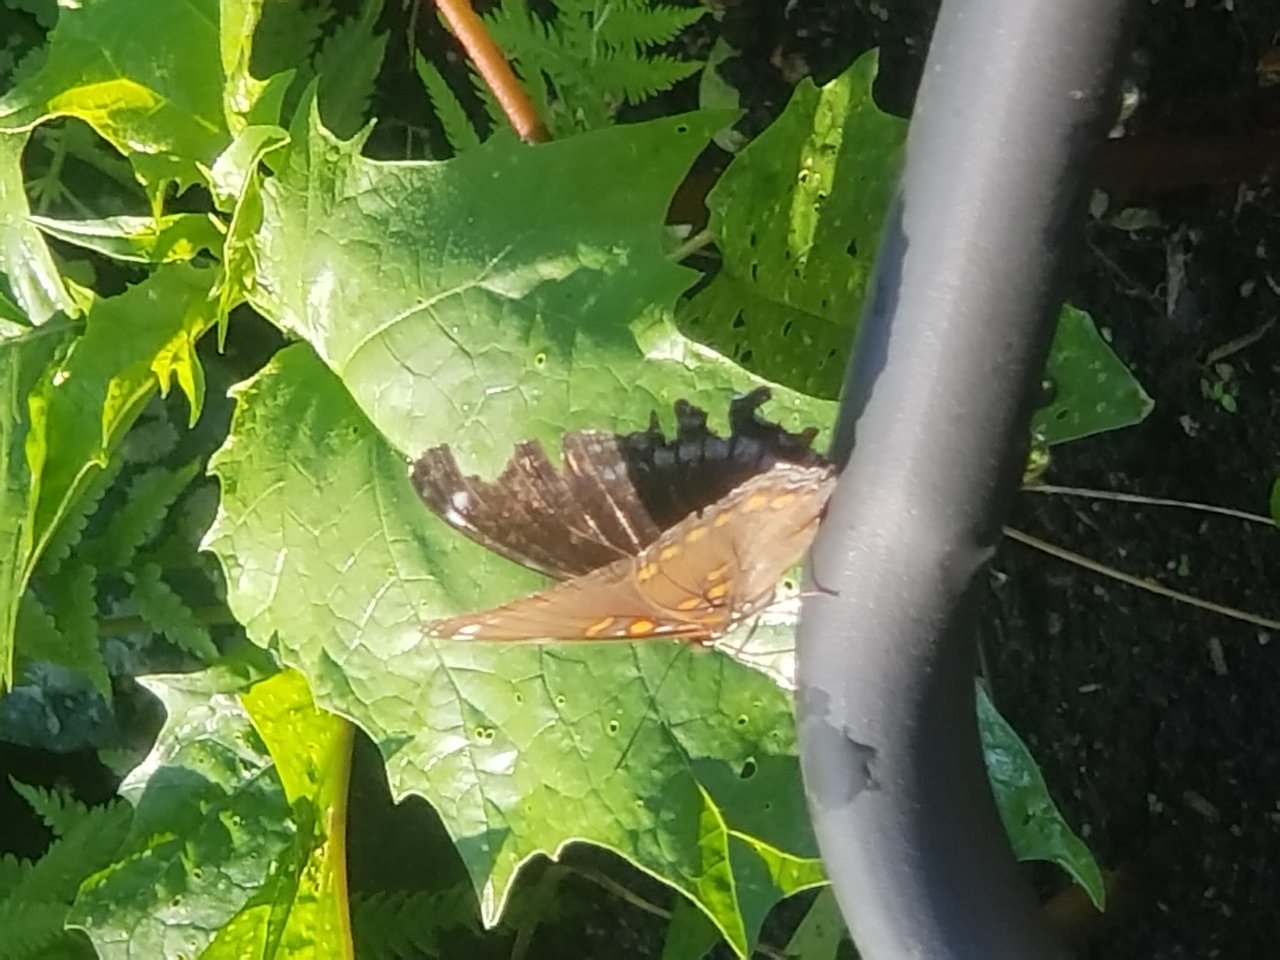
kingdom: Animalia
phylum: Arthropoda
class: Insecta
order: Lepidoptera
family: Nymphalidae
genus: Limenitis
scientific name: Limenitis astyanax
